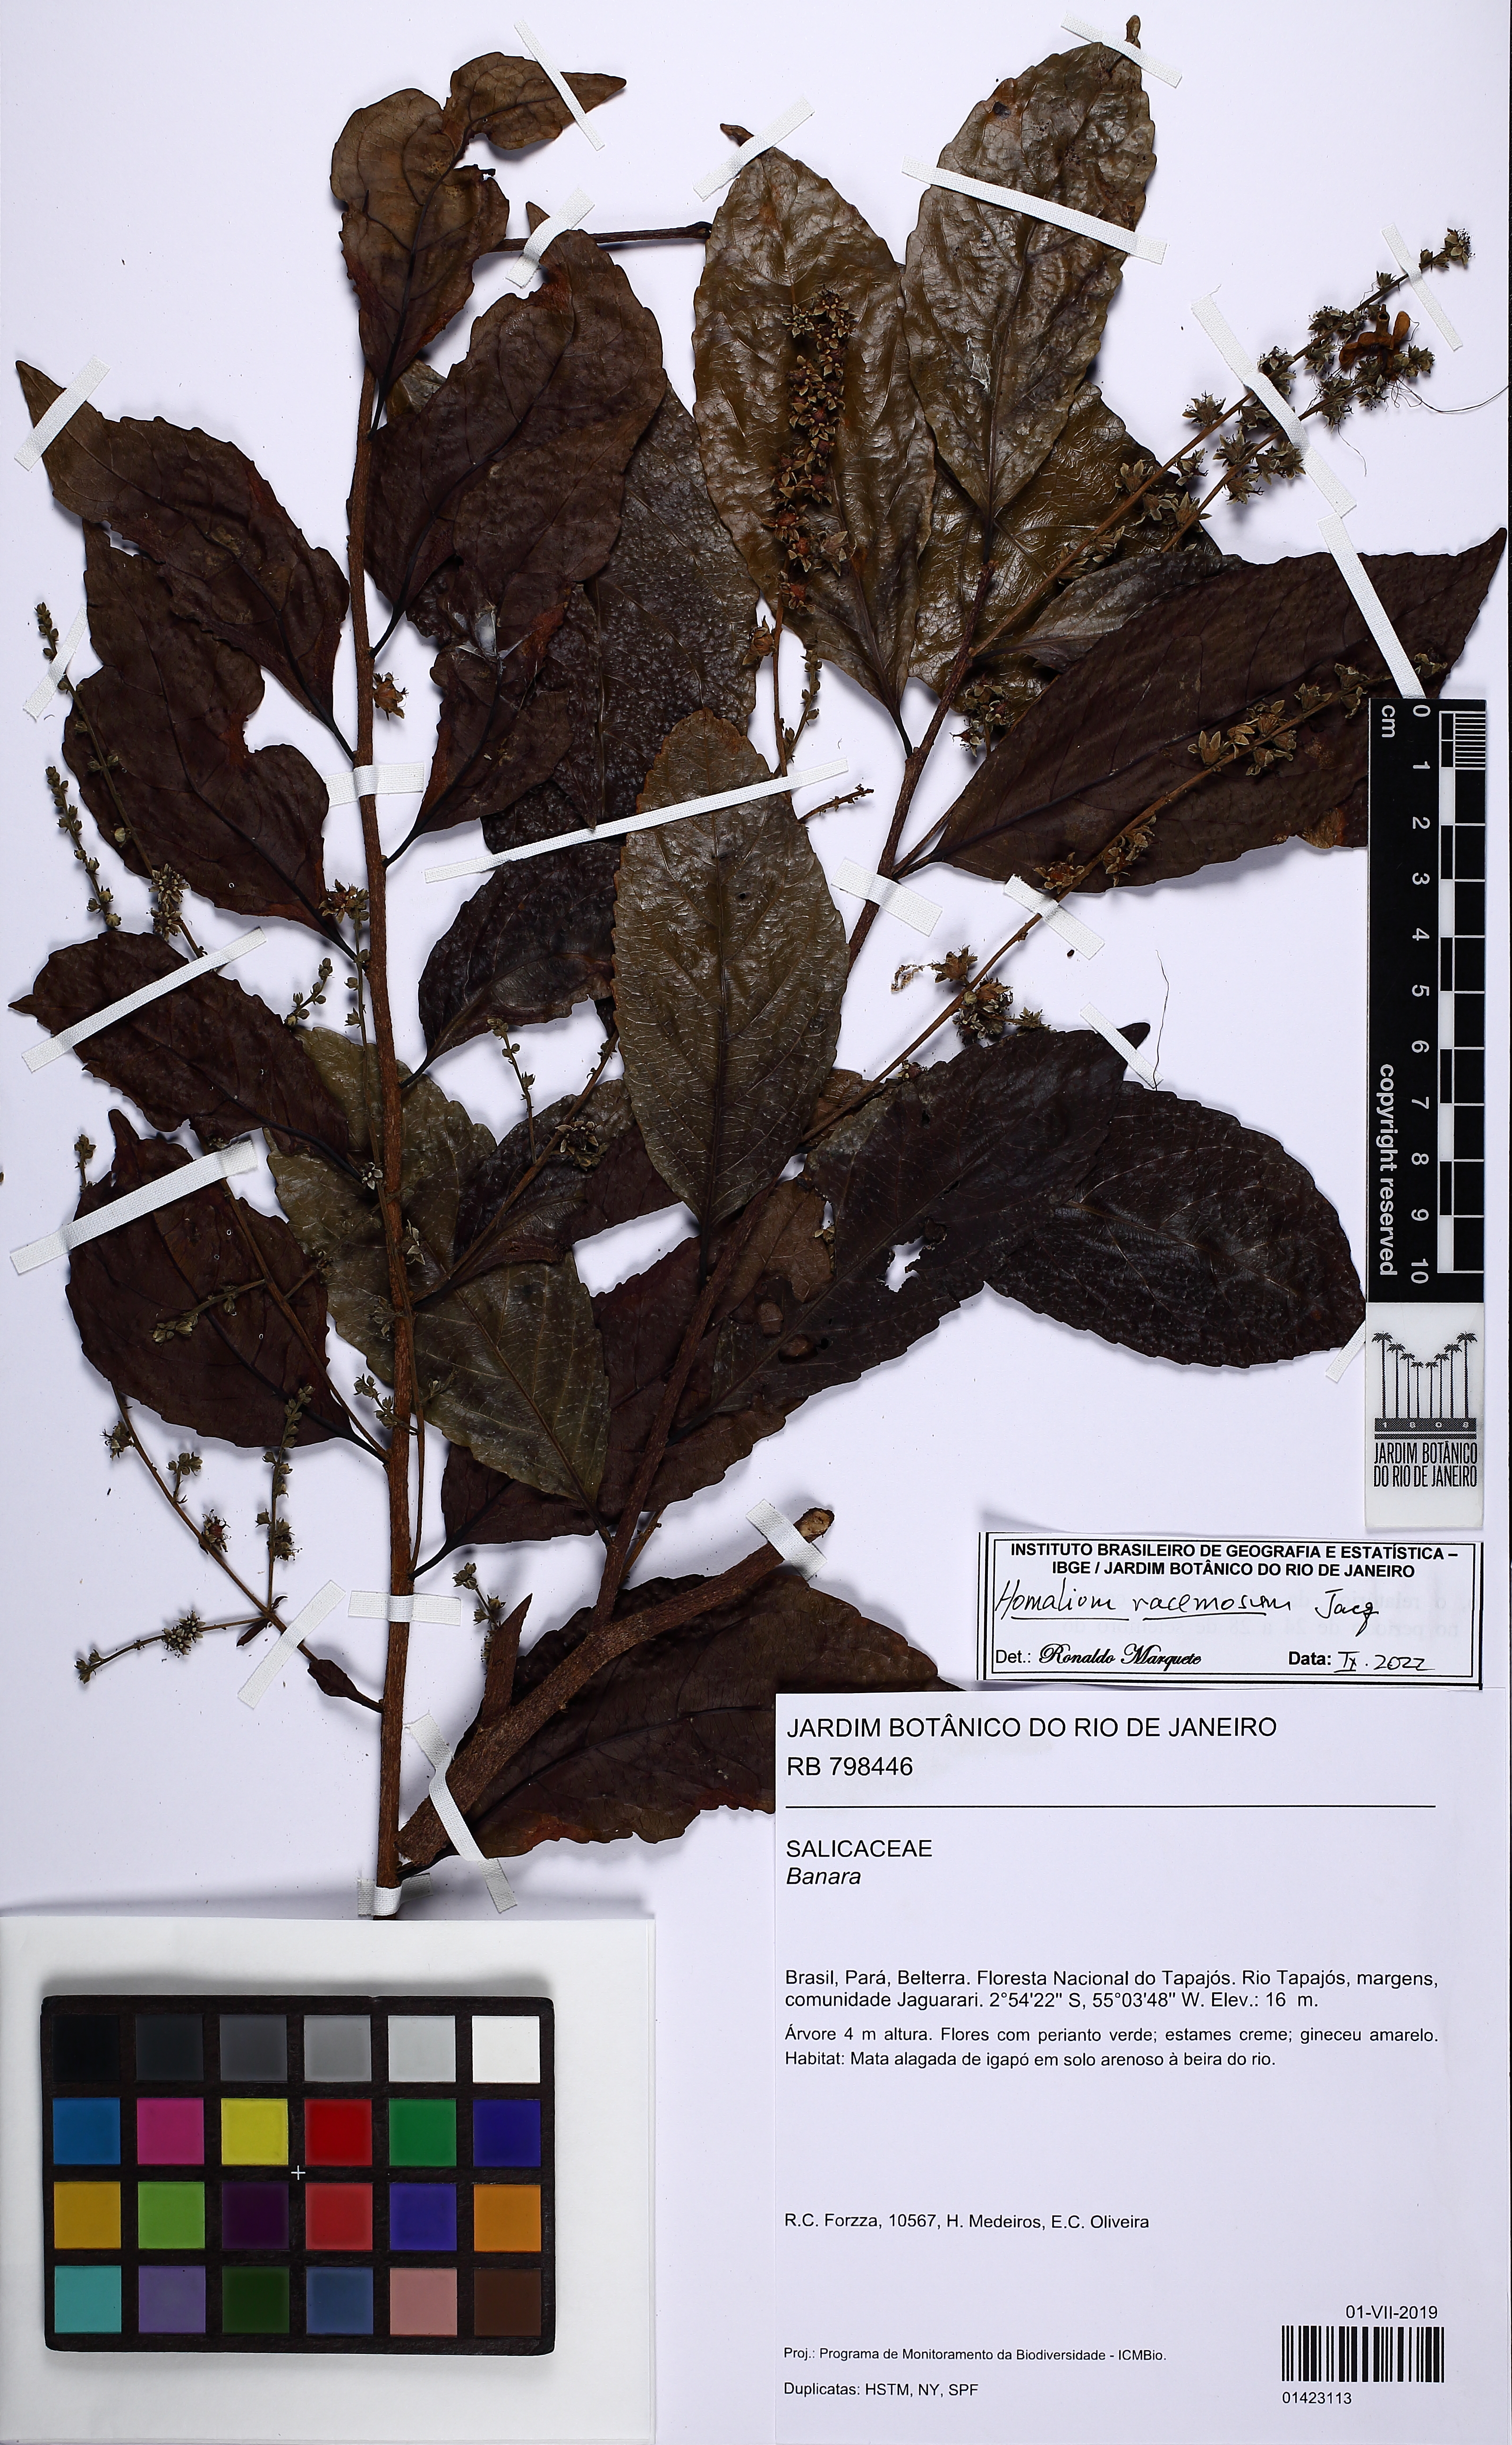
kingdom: Plantae
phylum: Tracheophyta
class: Magnoliopsida
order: Malpighiales
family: Salicaceae
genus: Homalium
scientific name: Homalium racemosum
